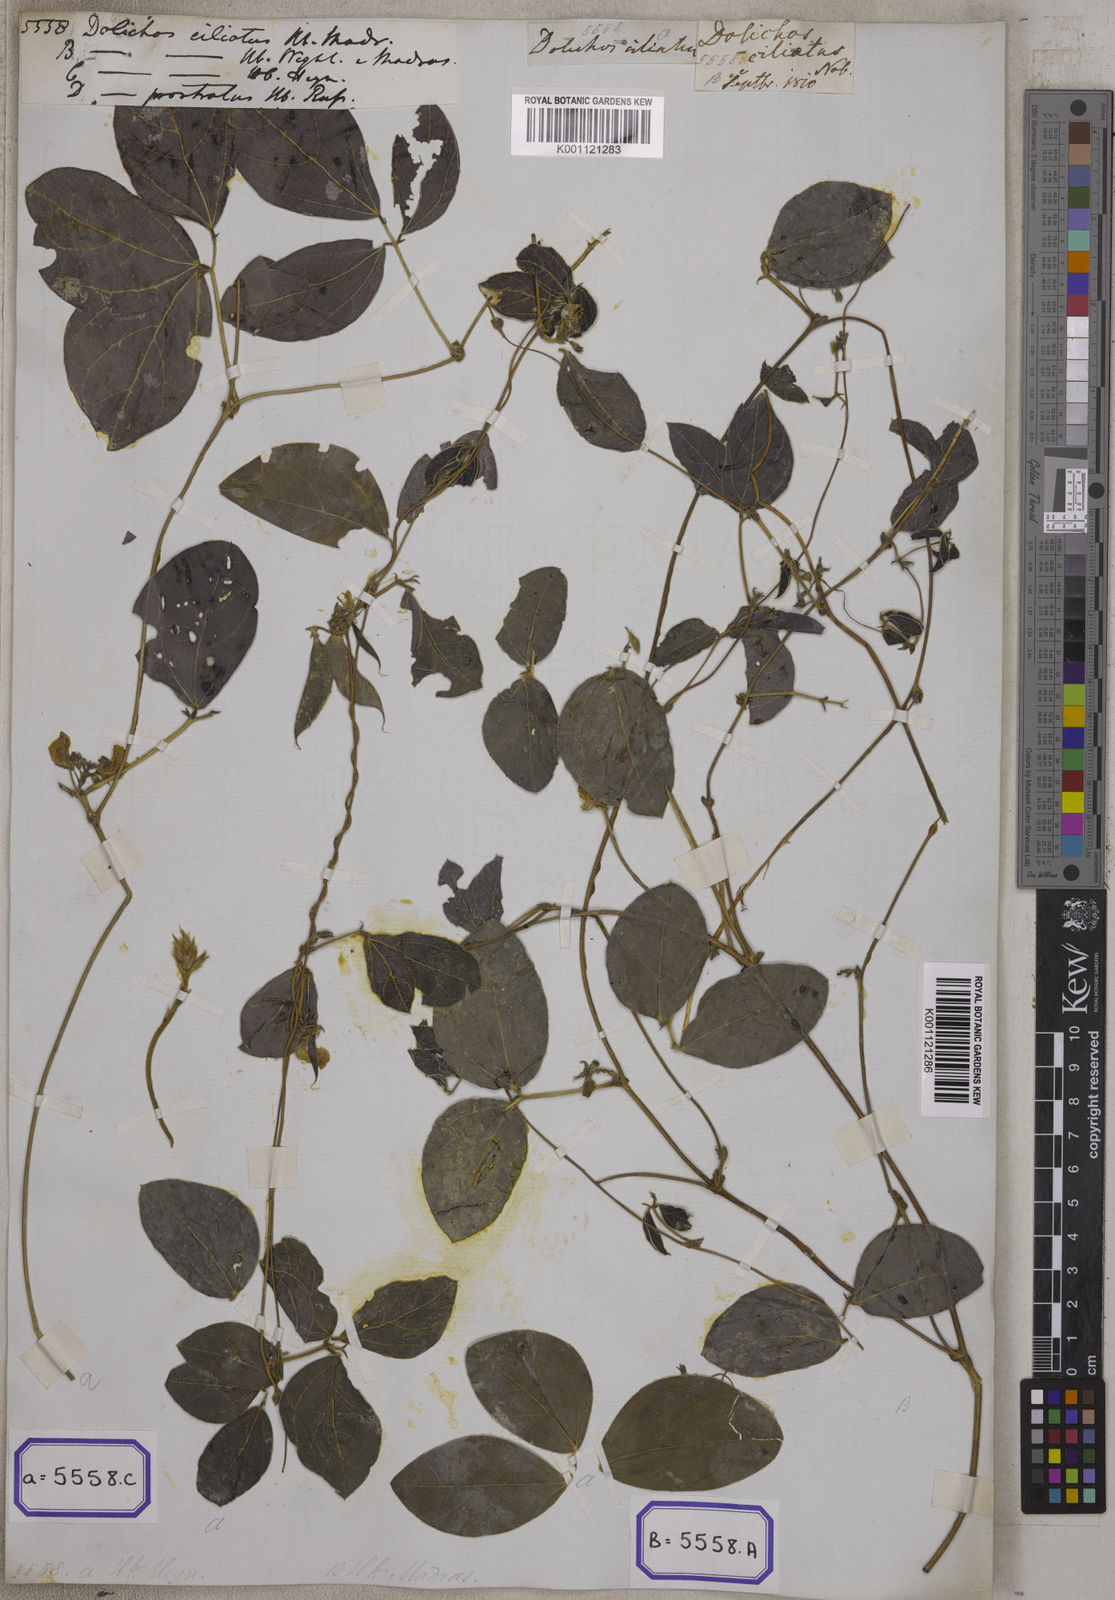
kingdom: Plantae
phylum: Tracheophyta
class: Magnoliopsida
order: Fabales
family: Fabaceae
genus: Macrotyloma
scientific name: Macrotyloma ciliatum
